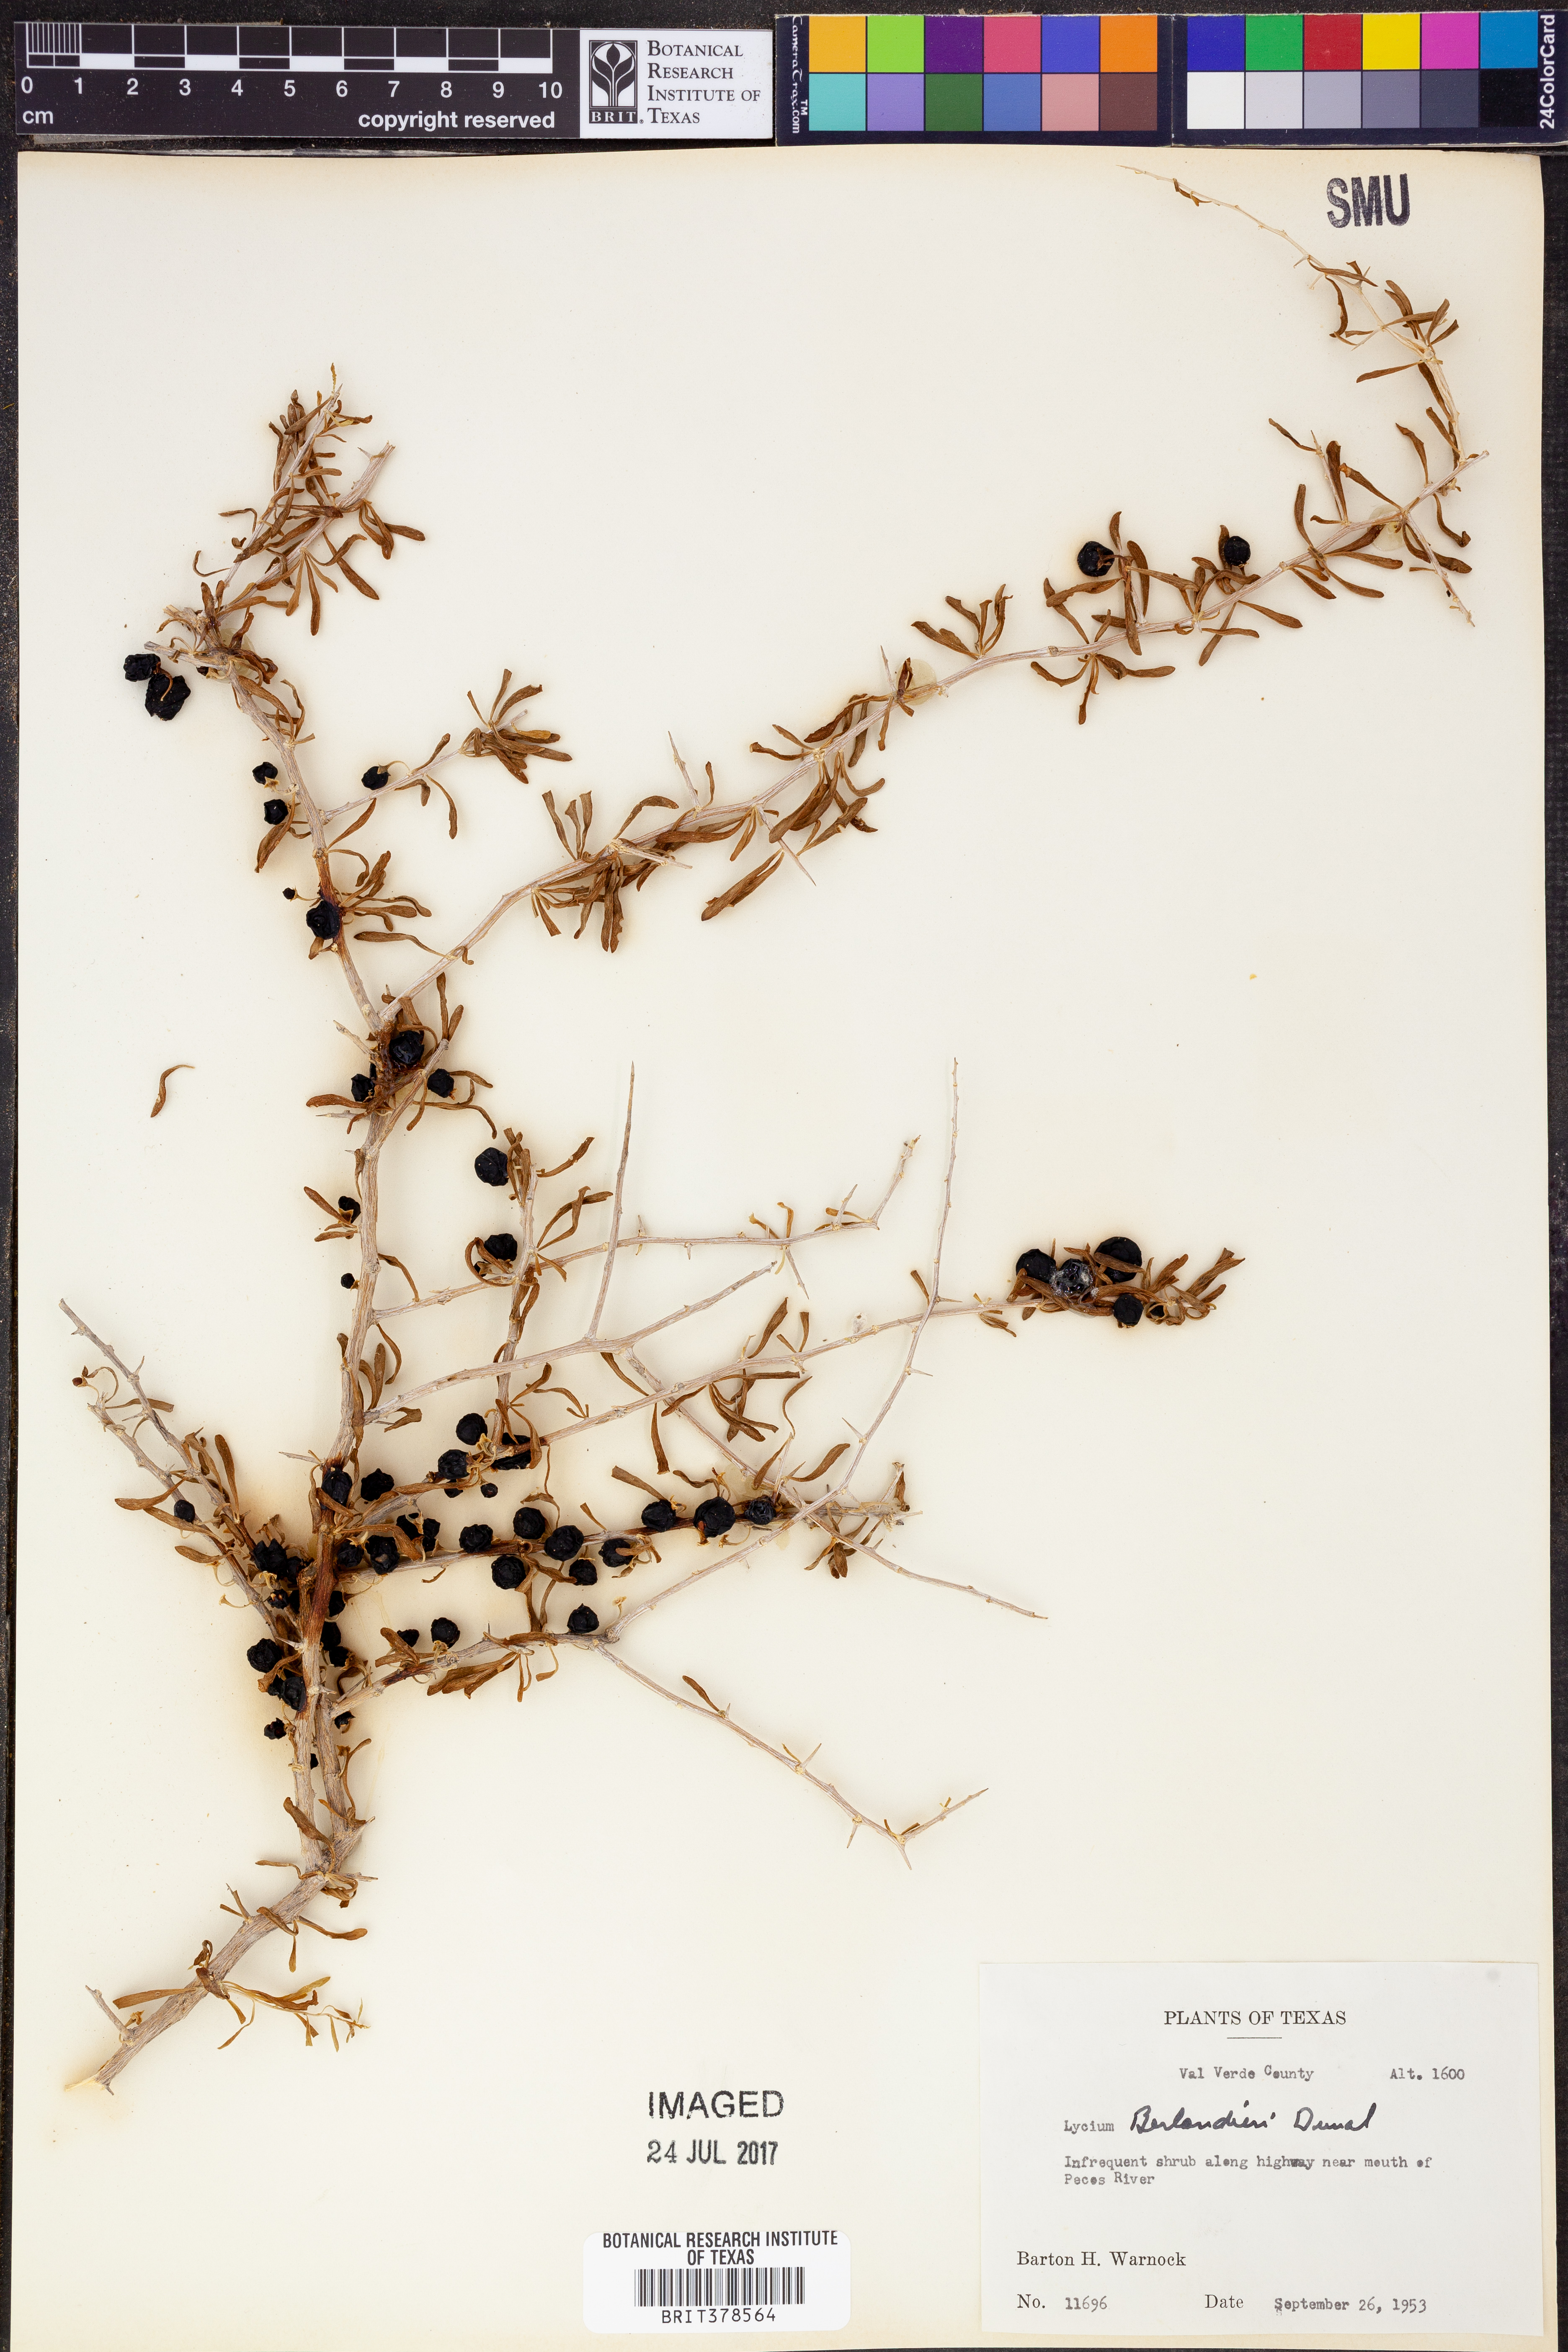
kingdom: Plantae
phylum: Tracheophyta
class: Magnoliopsida
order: Solanales
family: Solanaceae
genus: Lycium
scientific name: Lycium berlandieri
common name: Berlandier wolfberry
